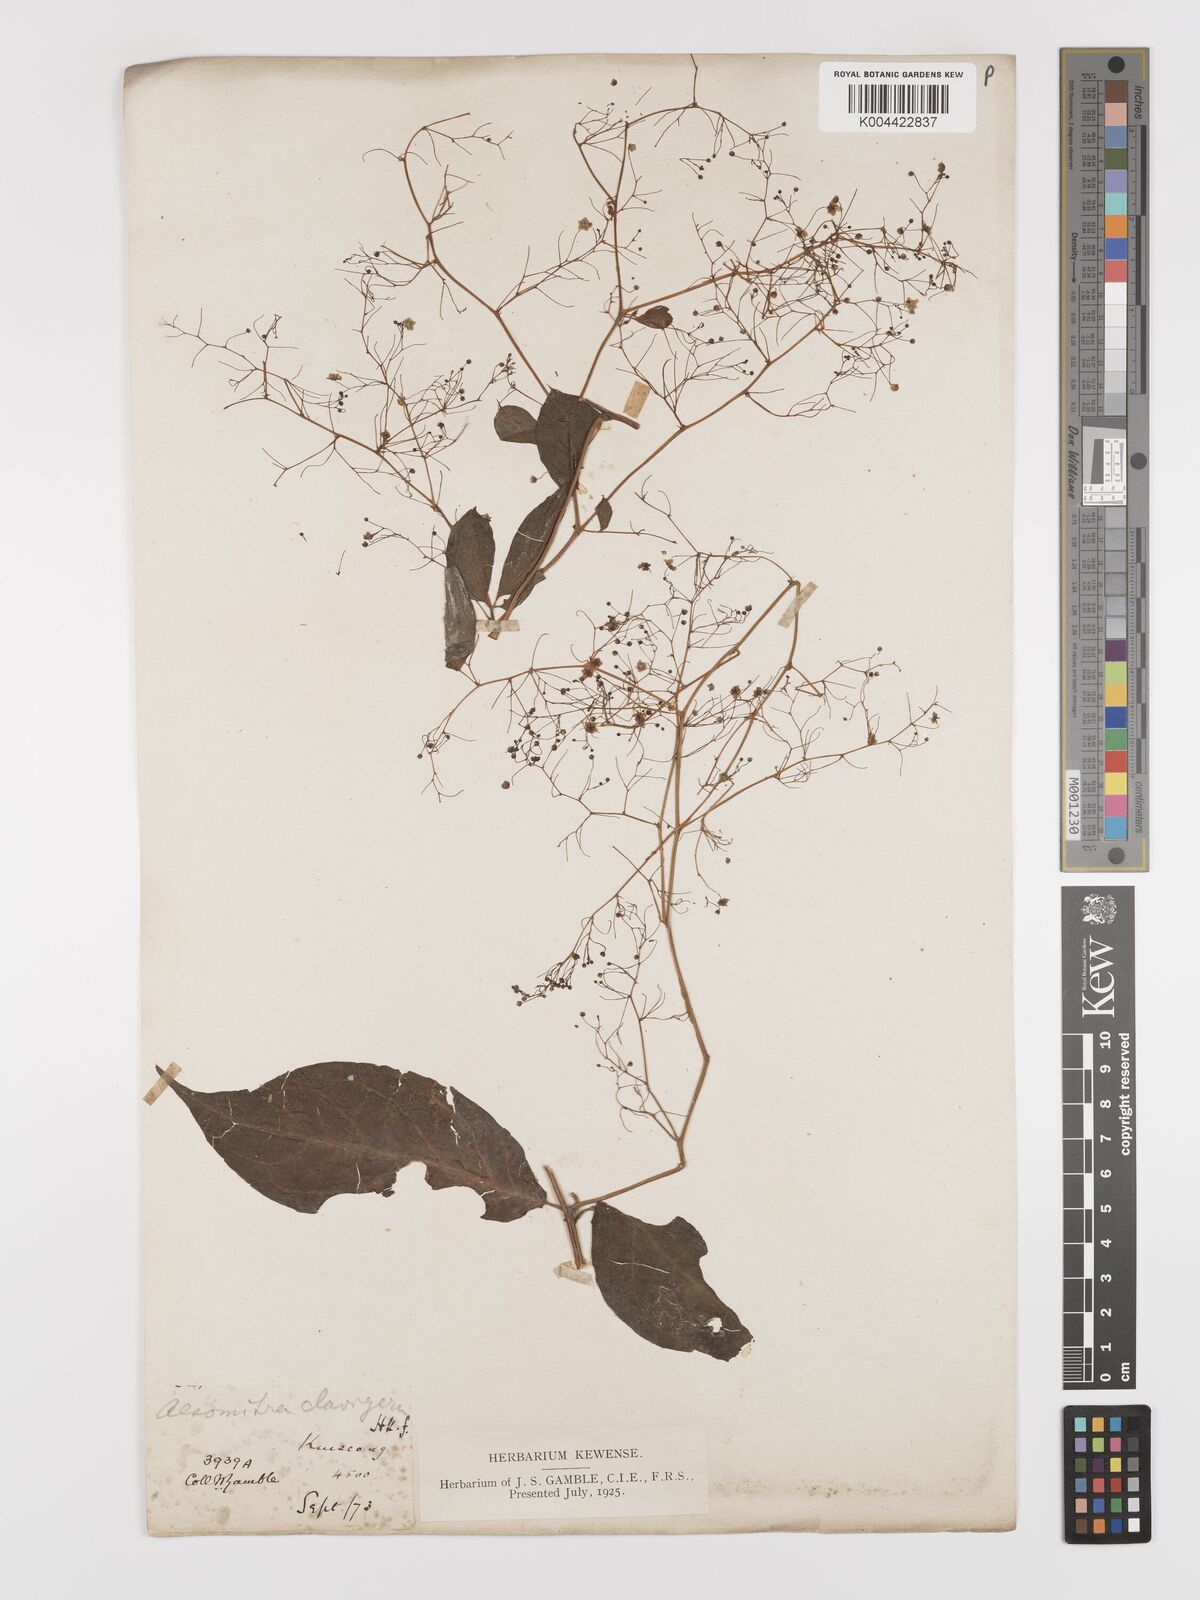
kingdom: Plantae
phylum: Tracheophyta
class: Magnoliopsida
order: Cucurbitales
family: Cucurbitaceae
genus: Neoalsomitra
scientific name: Neoalsomitra
